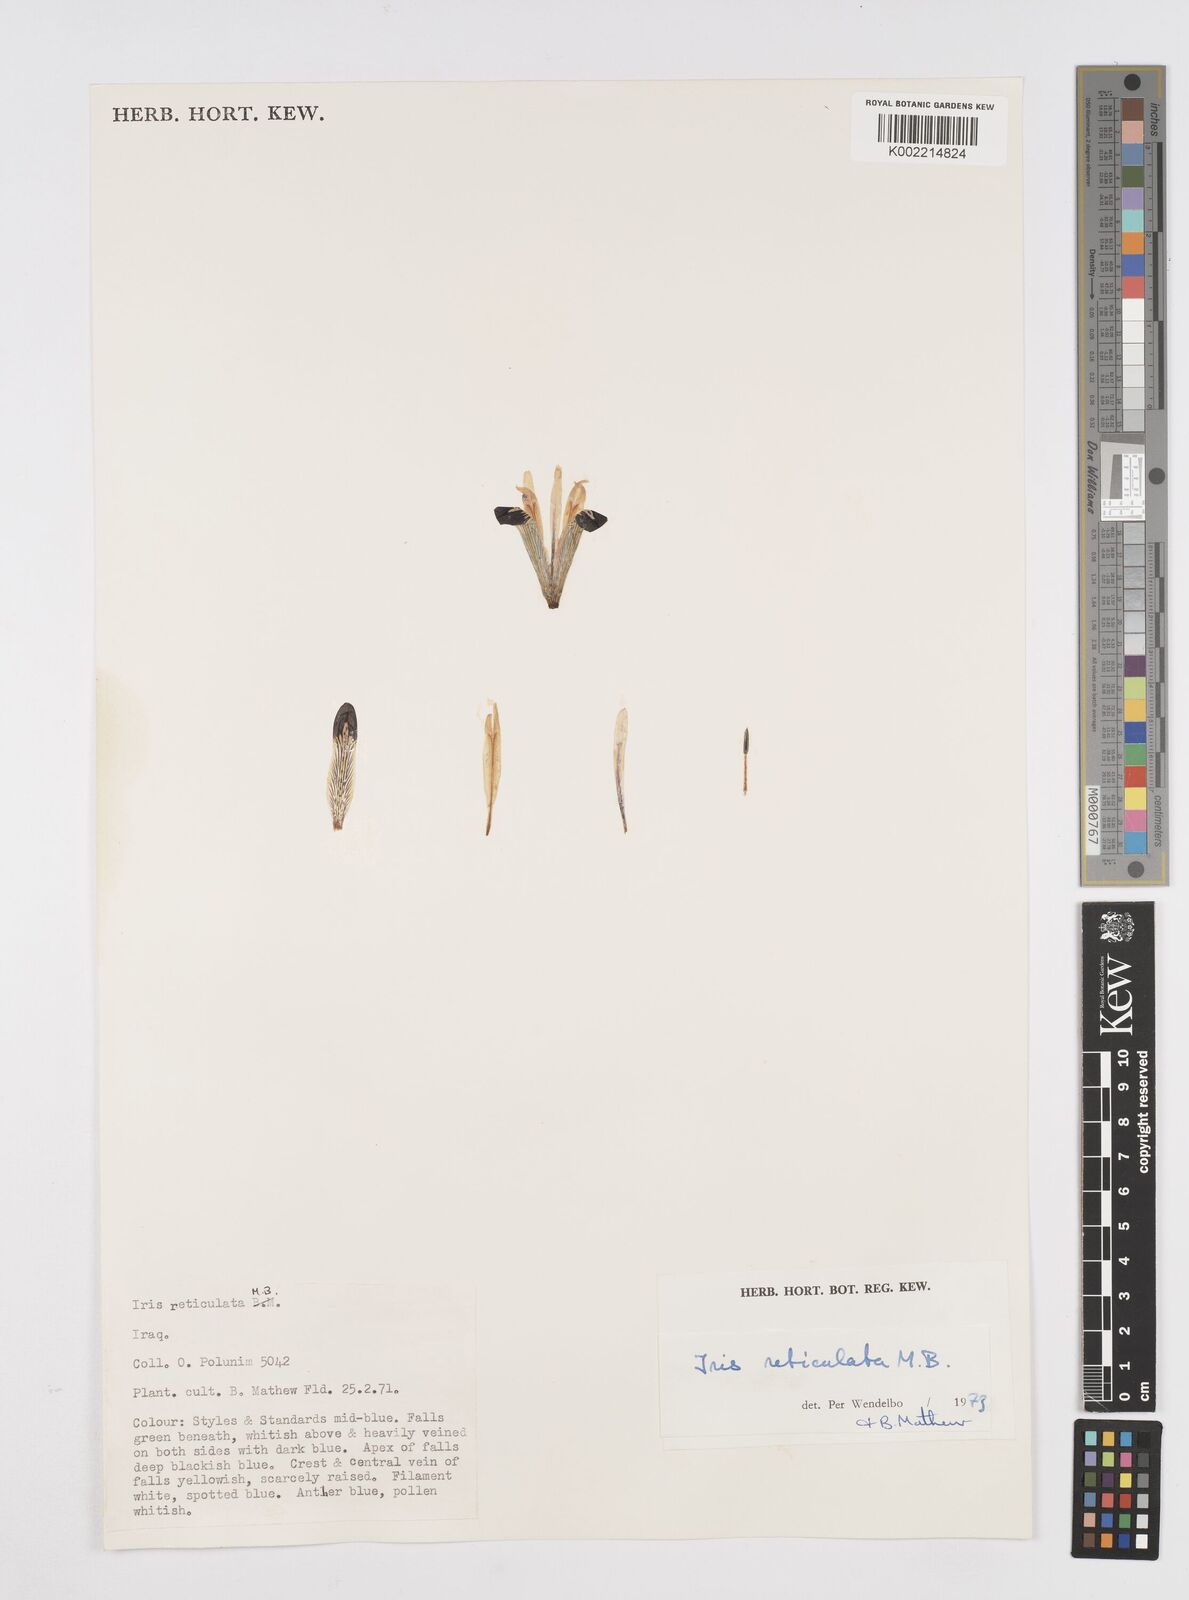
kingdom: Plantae
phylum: Tracheophyta
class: Liliopsida
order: Asparagales
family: Iridaceae
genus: Iris
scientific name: Iris reticulata
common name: Netted iris
